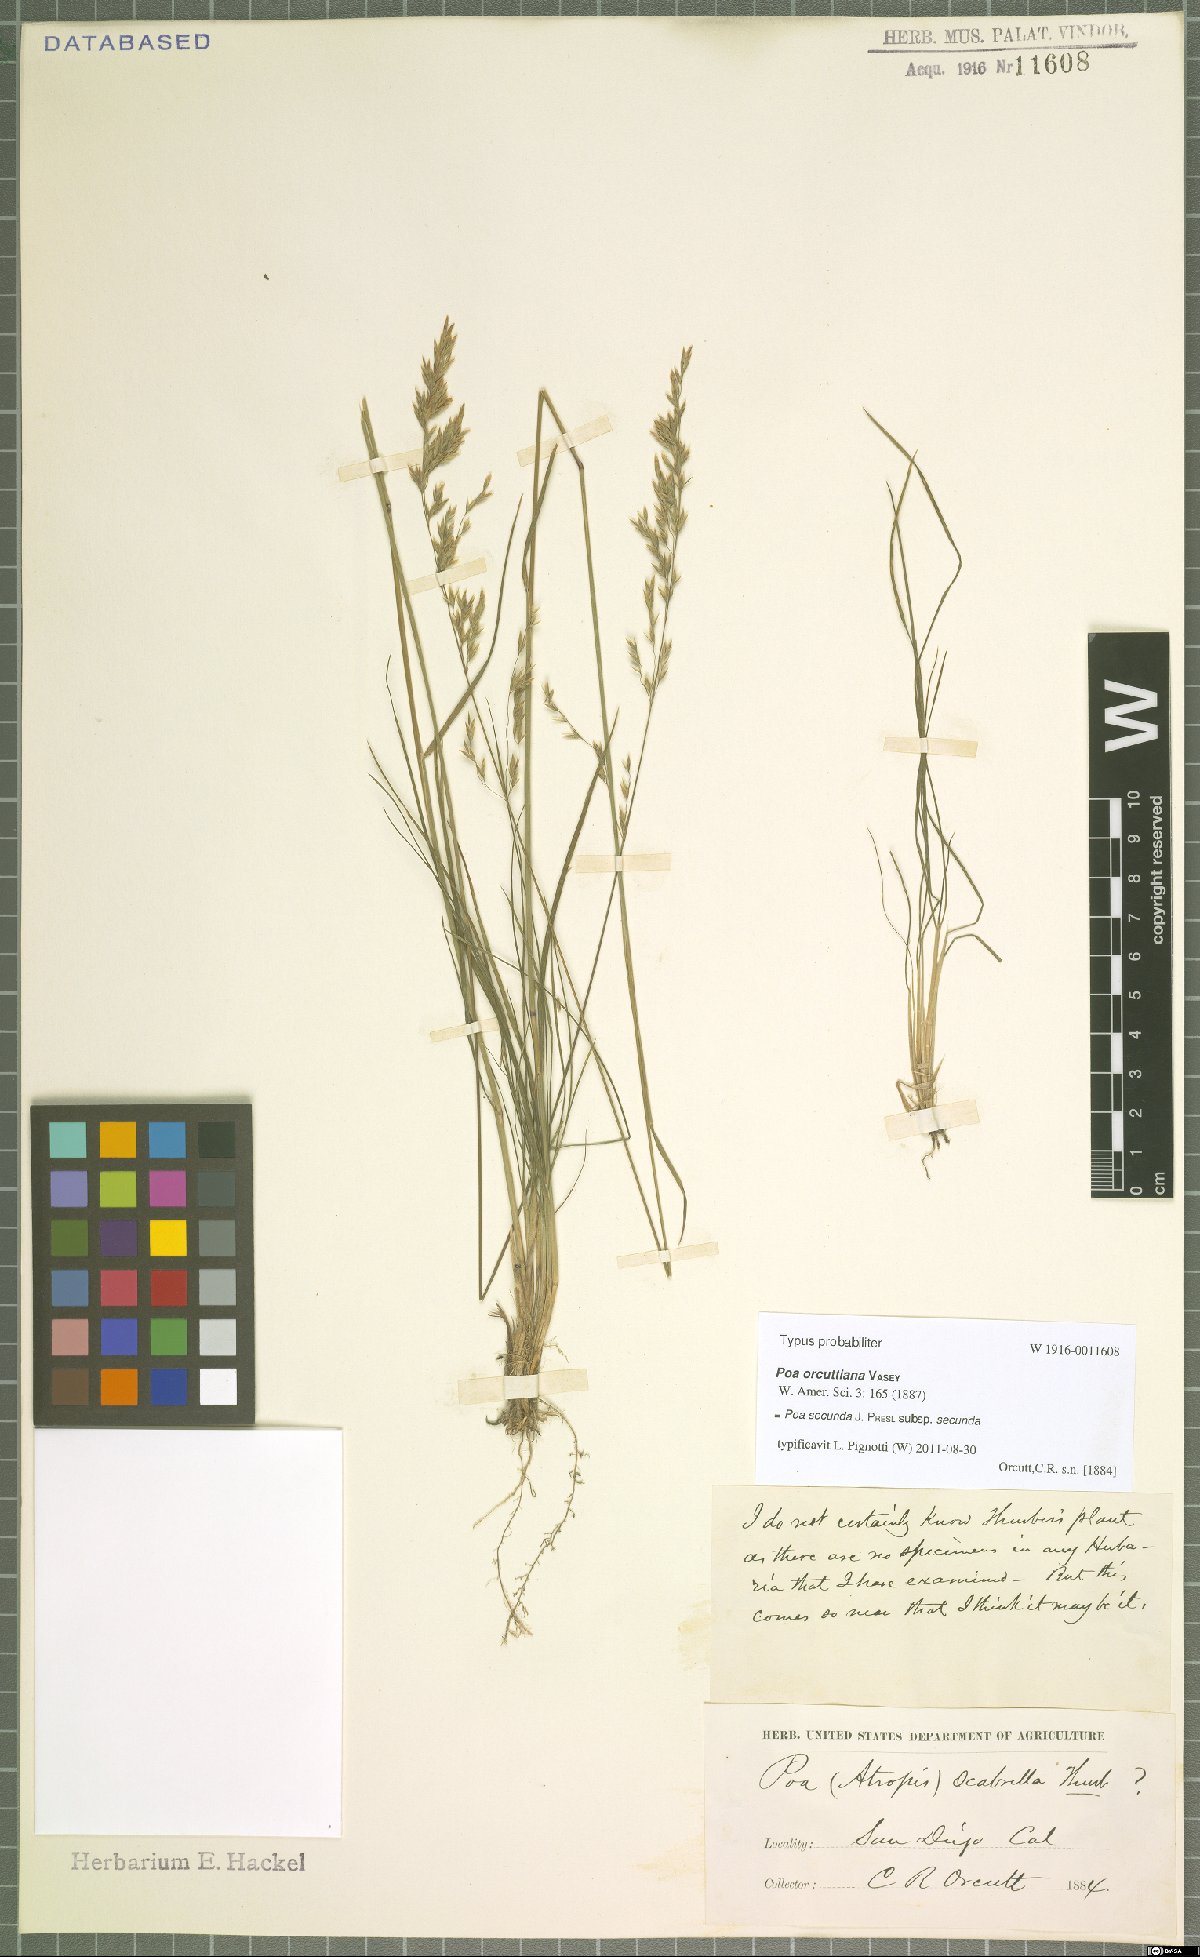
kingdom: Plantae
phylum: Tracheophyta
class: Liliopsida
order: Poales
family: Poaceae
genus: Poa
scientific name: Poa secunda
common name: Sandberg bluegrass
